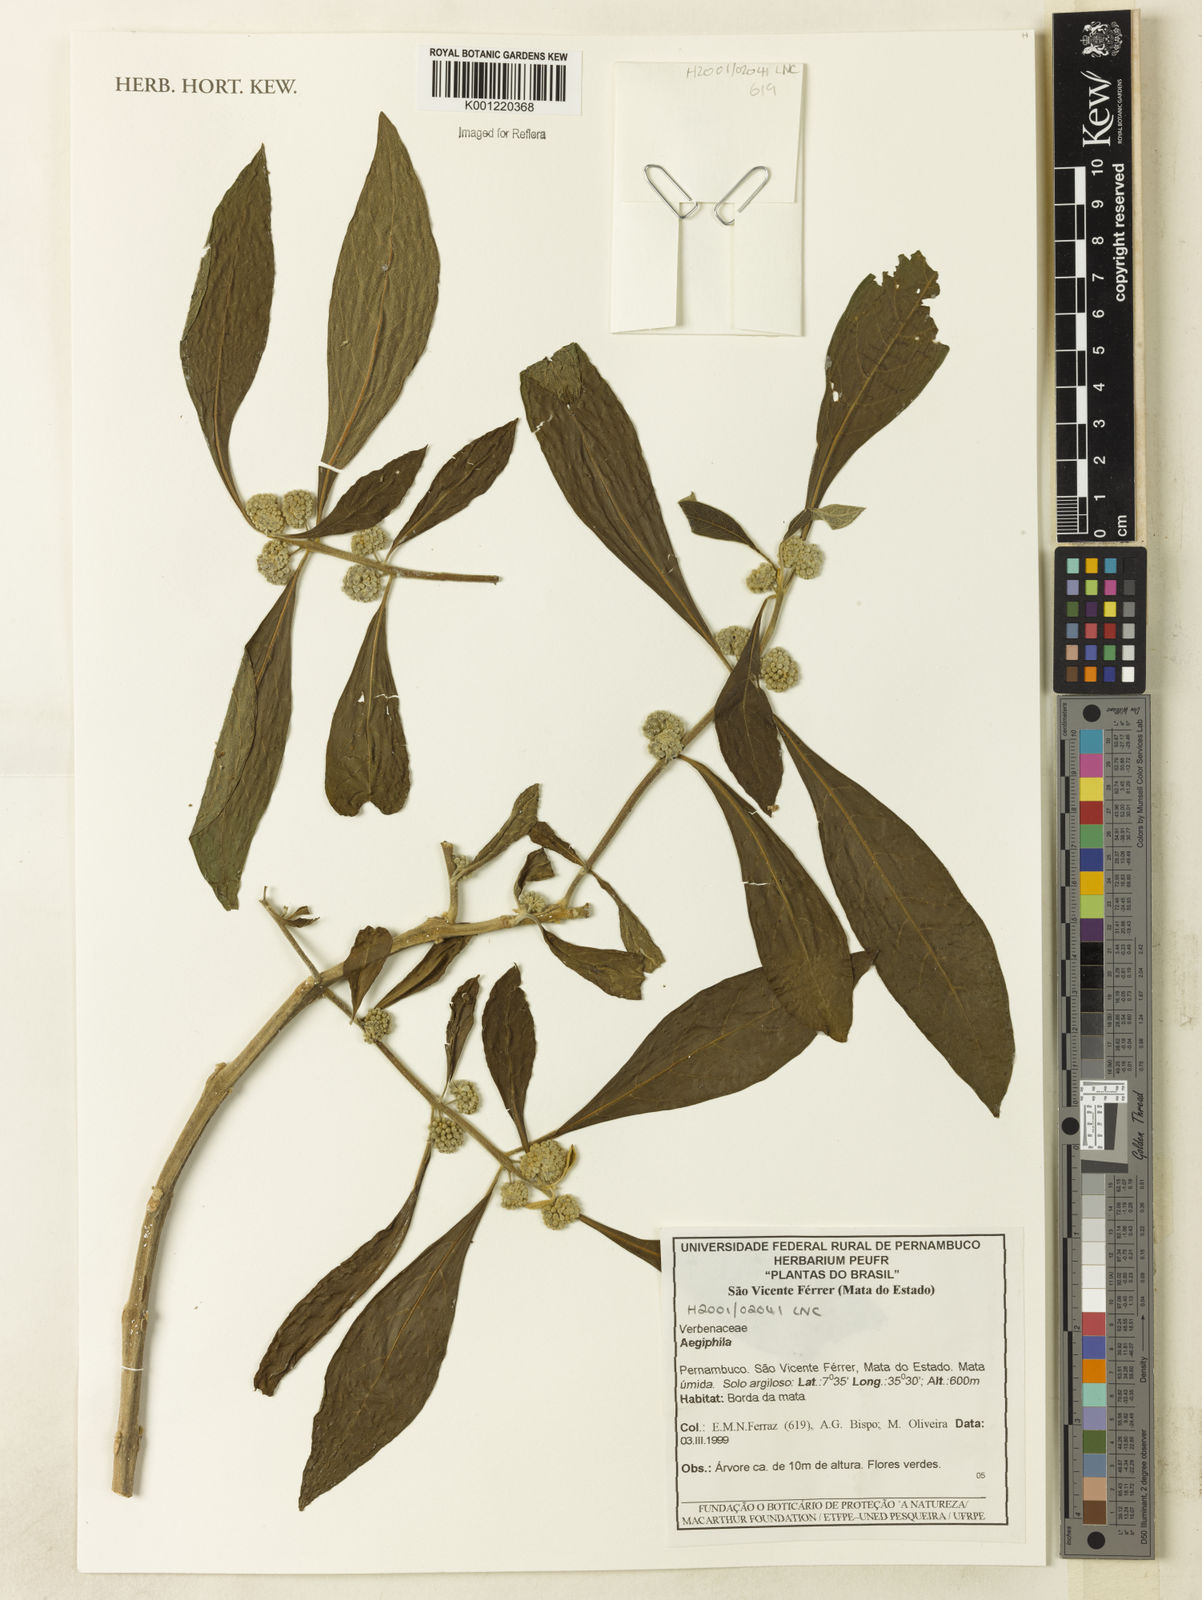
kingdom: Plantae
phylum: Tracheophyta
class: Magnoliopsida
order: Lamiales
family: Lamiaceae
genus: Aegiphila
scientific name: Aegiphila
